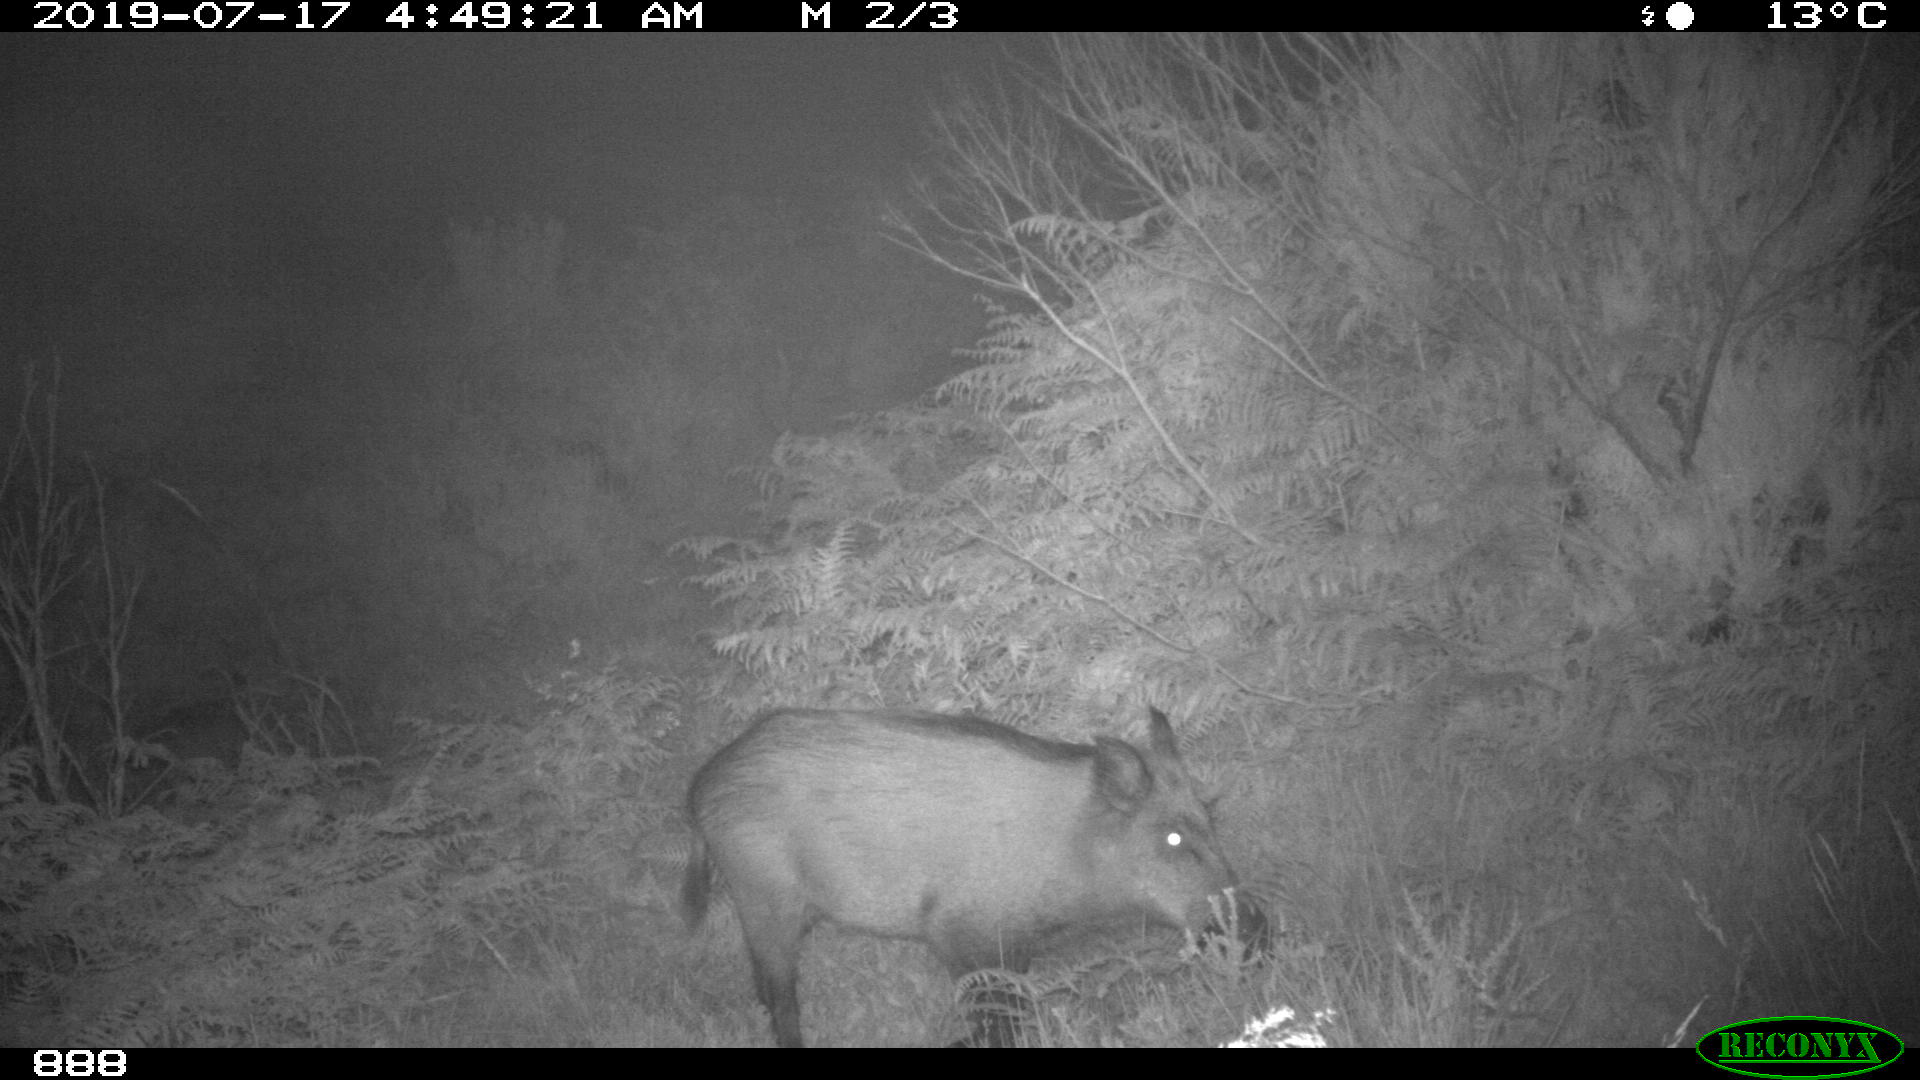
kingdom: Animalia
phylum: Chordata
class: Mammalia
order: Artiodactyla
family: Suidae
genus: Sus
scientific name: Sus scrofa
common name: Wild boar
